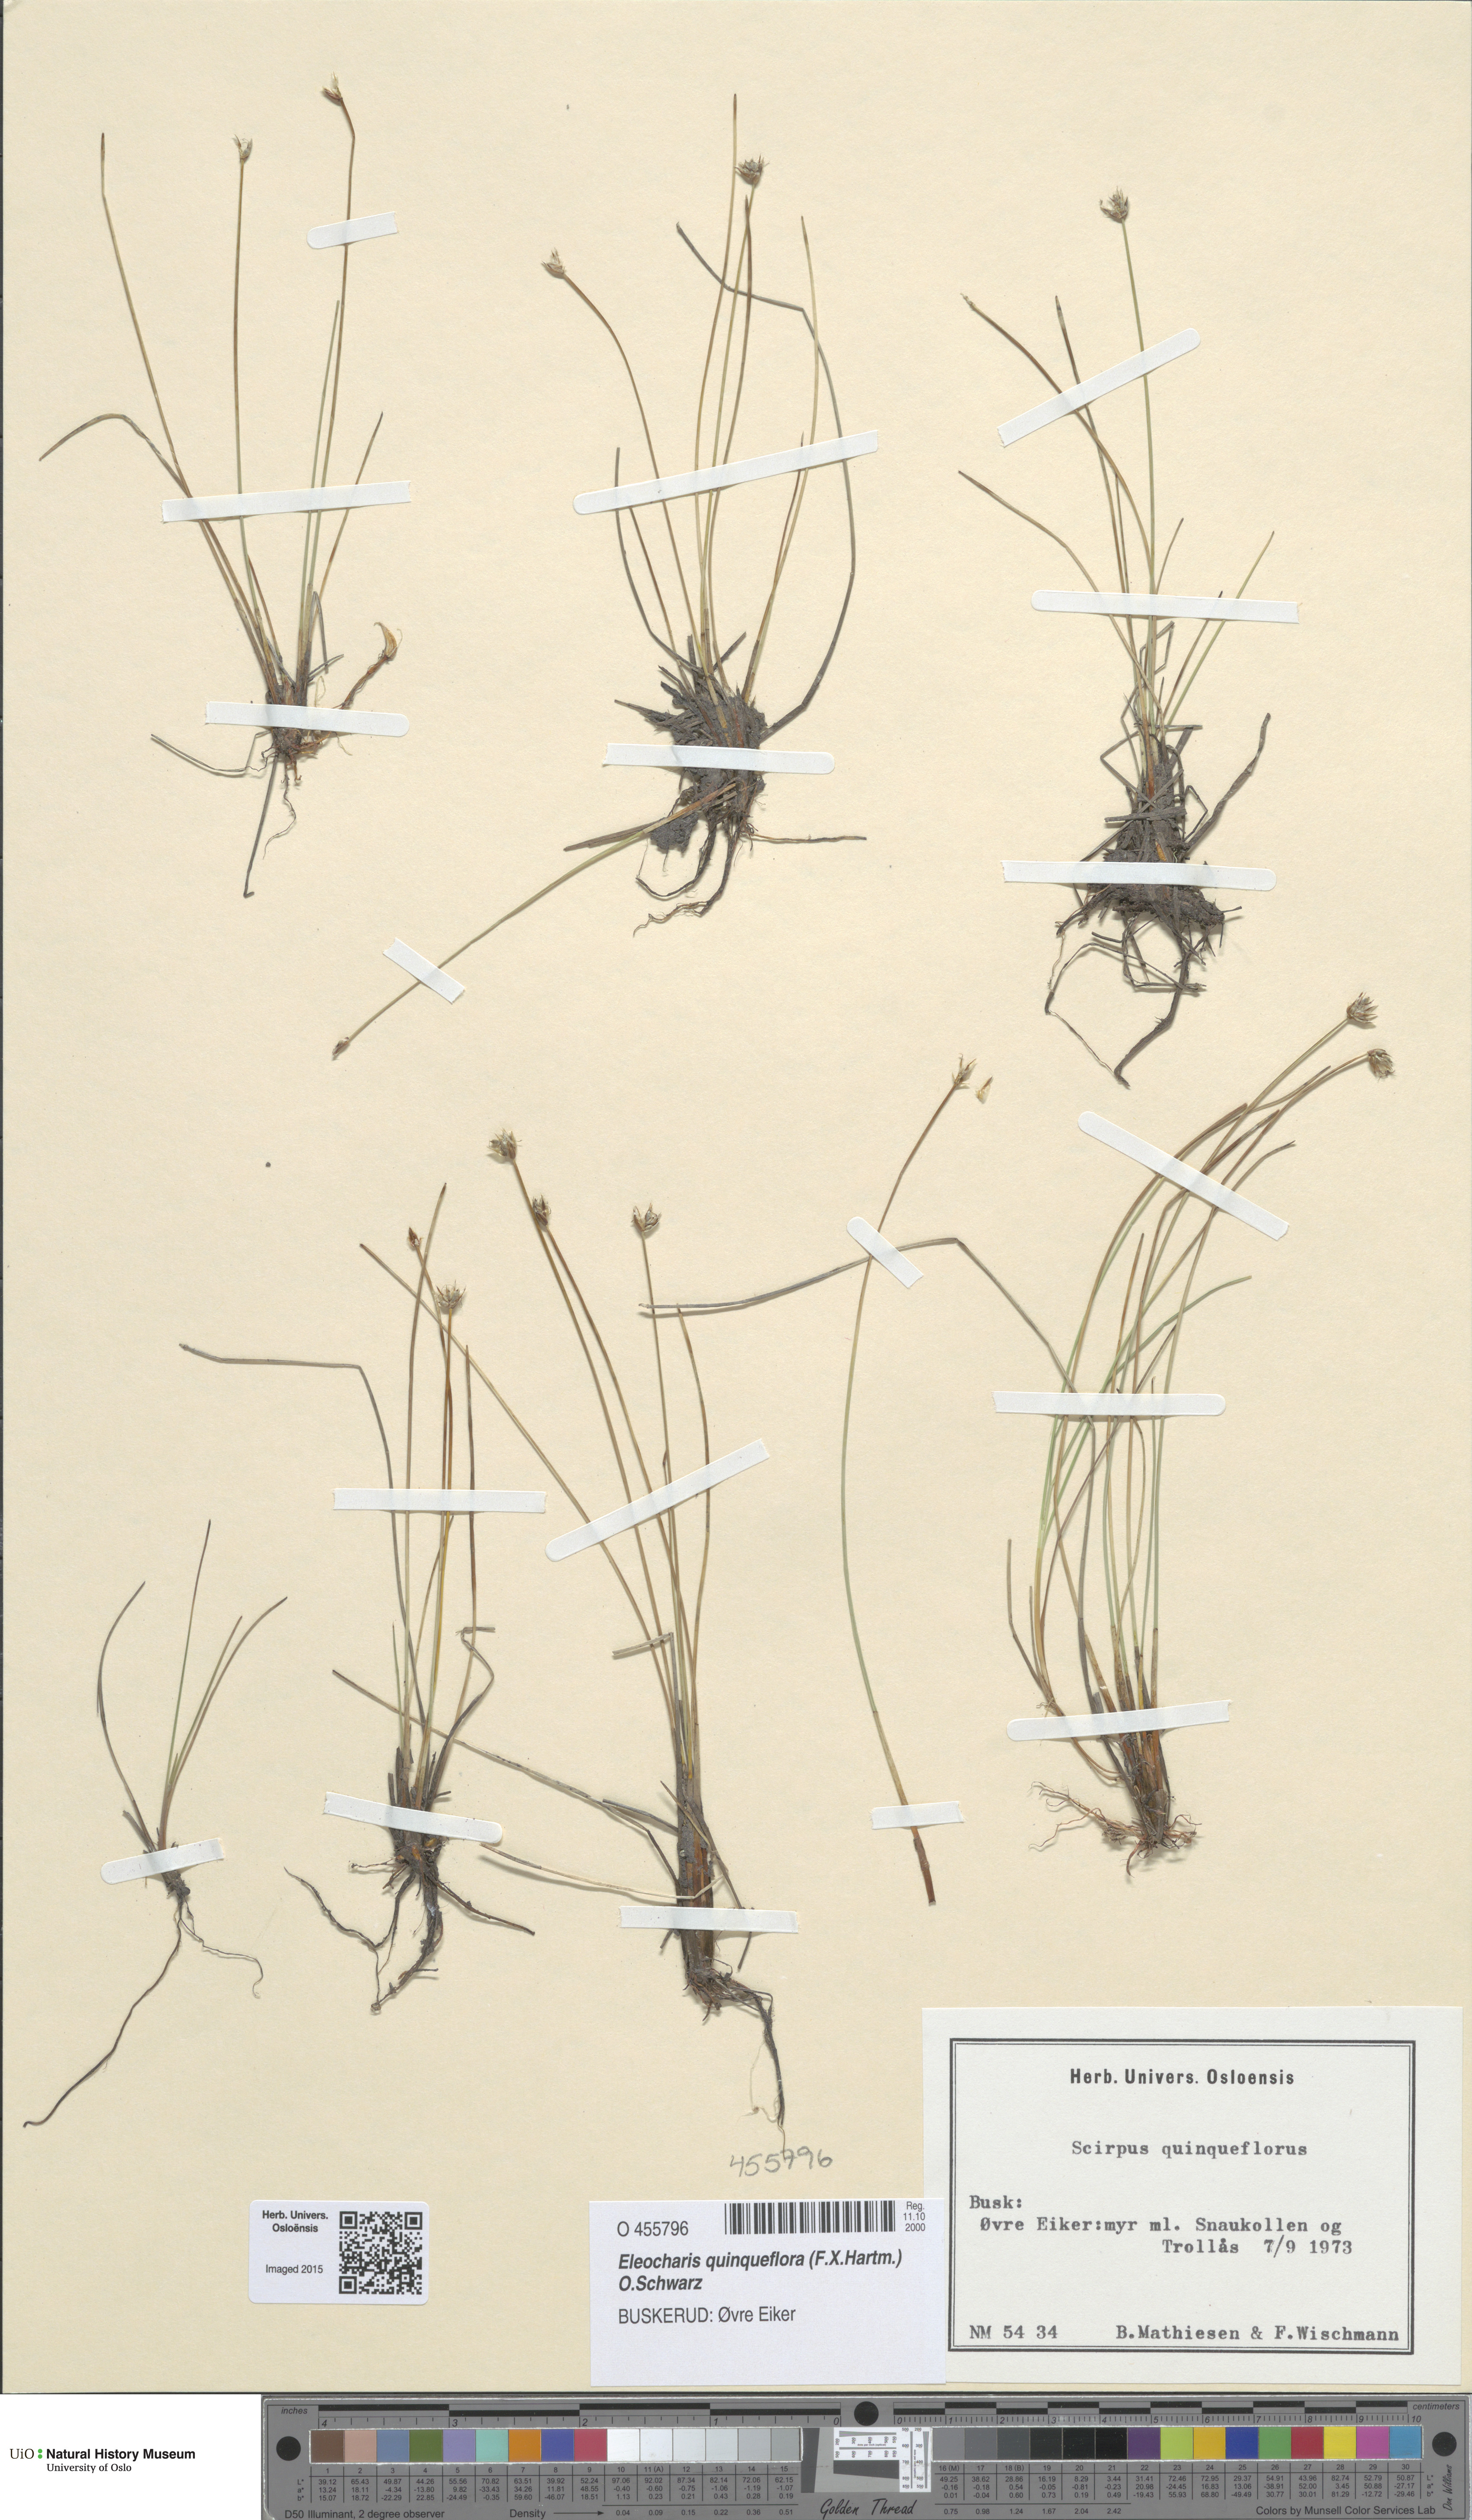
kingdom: Plantae
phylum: Tracheophyta
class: Liliopsida
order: Poales
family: Cyperaceae
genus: Eleocharis
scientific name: Eleocharis quinqueflora
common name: Few-flowered spike-rush
